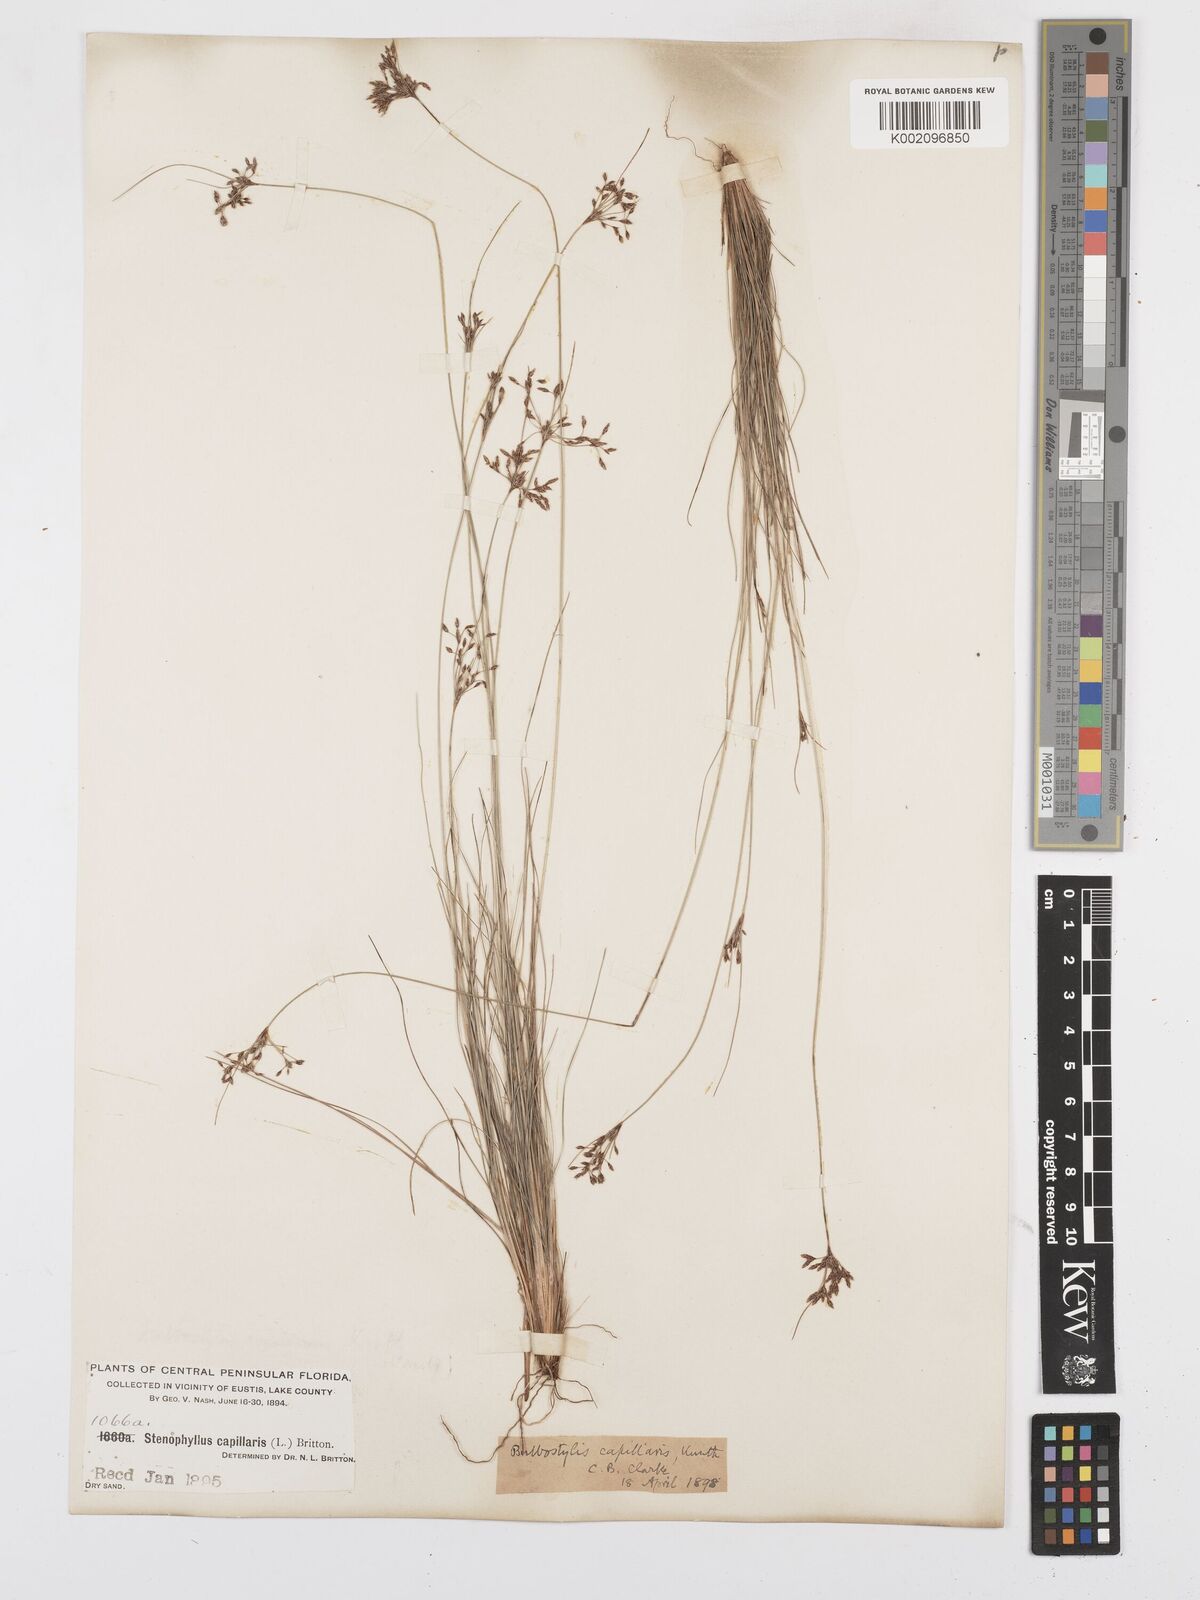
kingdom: Plantae
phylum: Tracheophyta
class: Liliopsida
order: Poales
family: Cyperaceae
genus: Bulbostylis
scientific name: Bulbostylis capillaris
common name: Densetuft hairsedge
